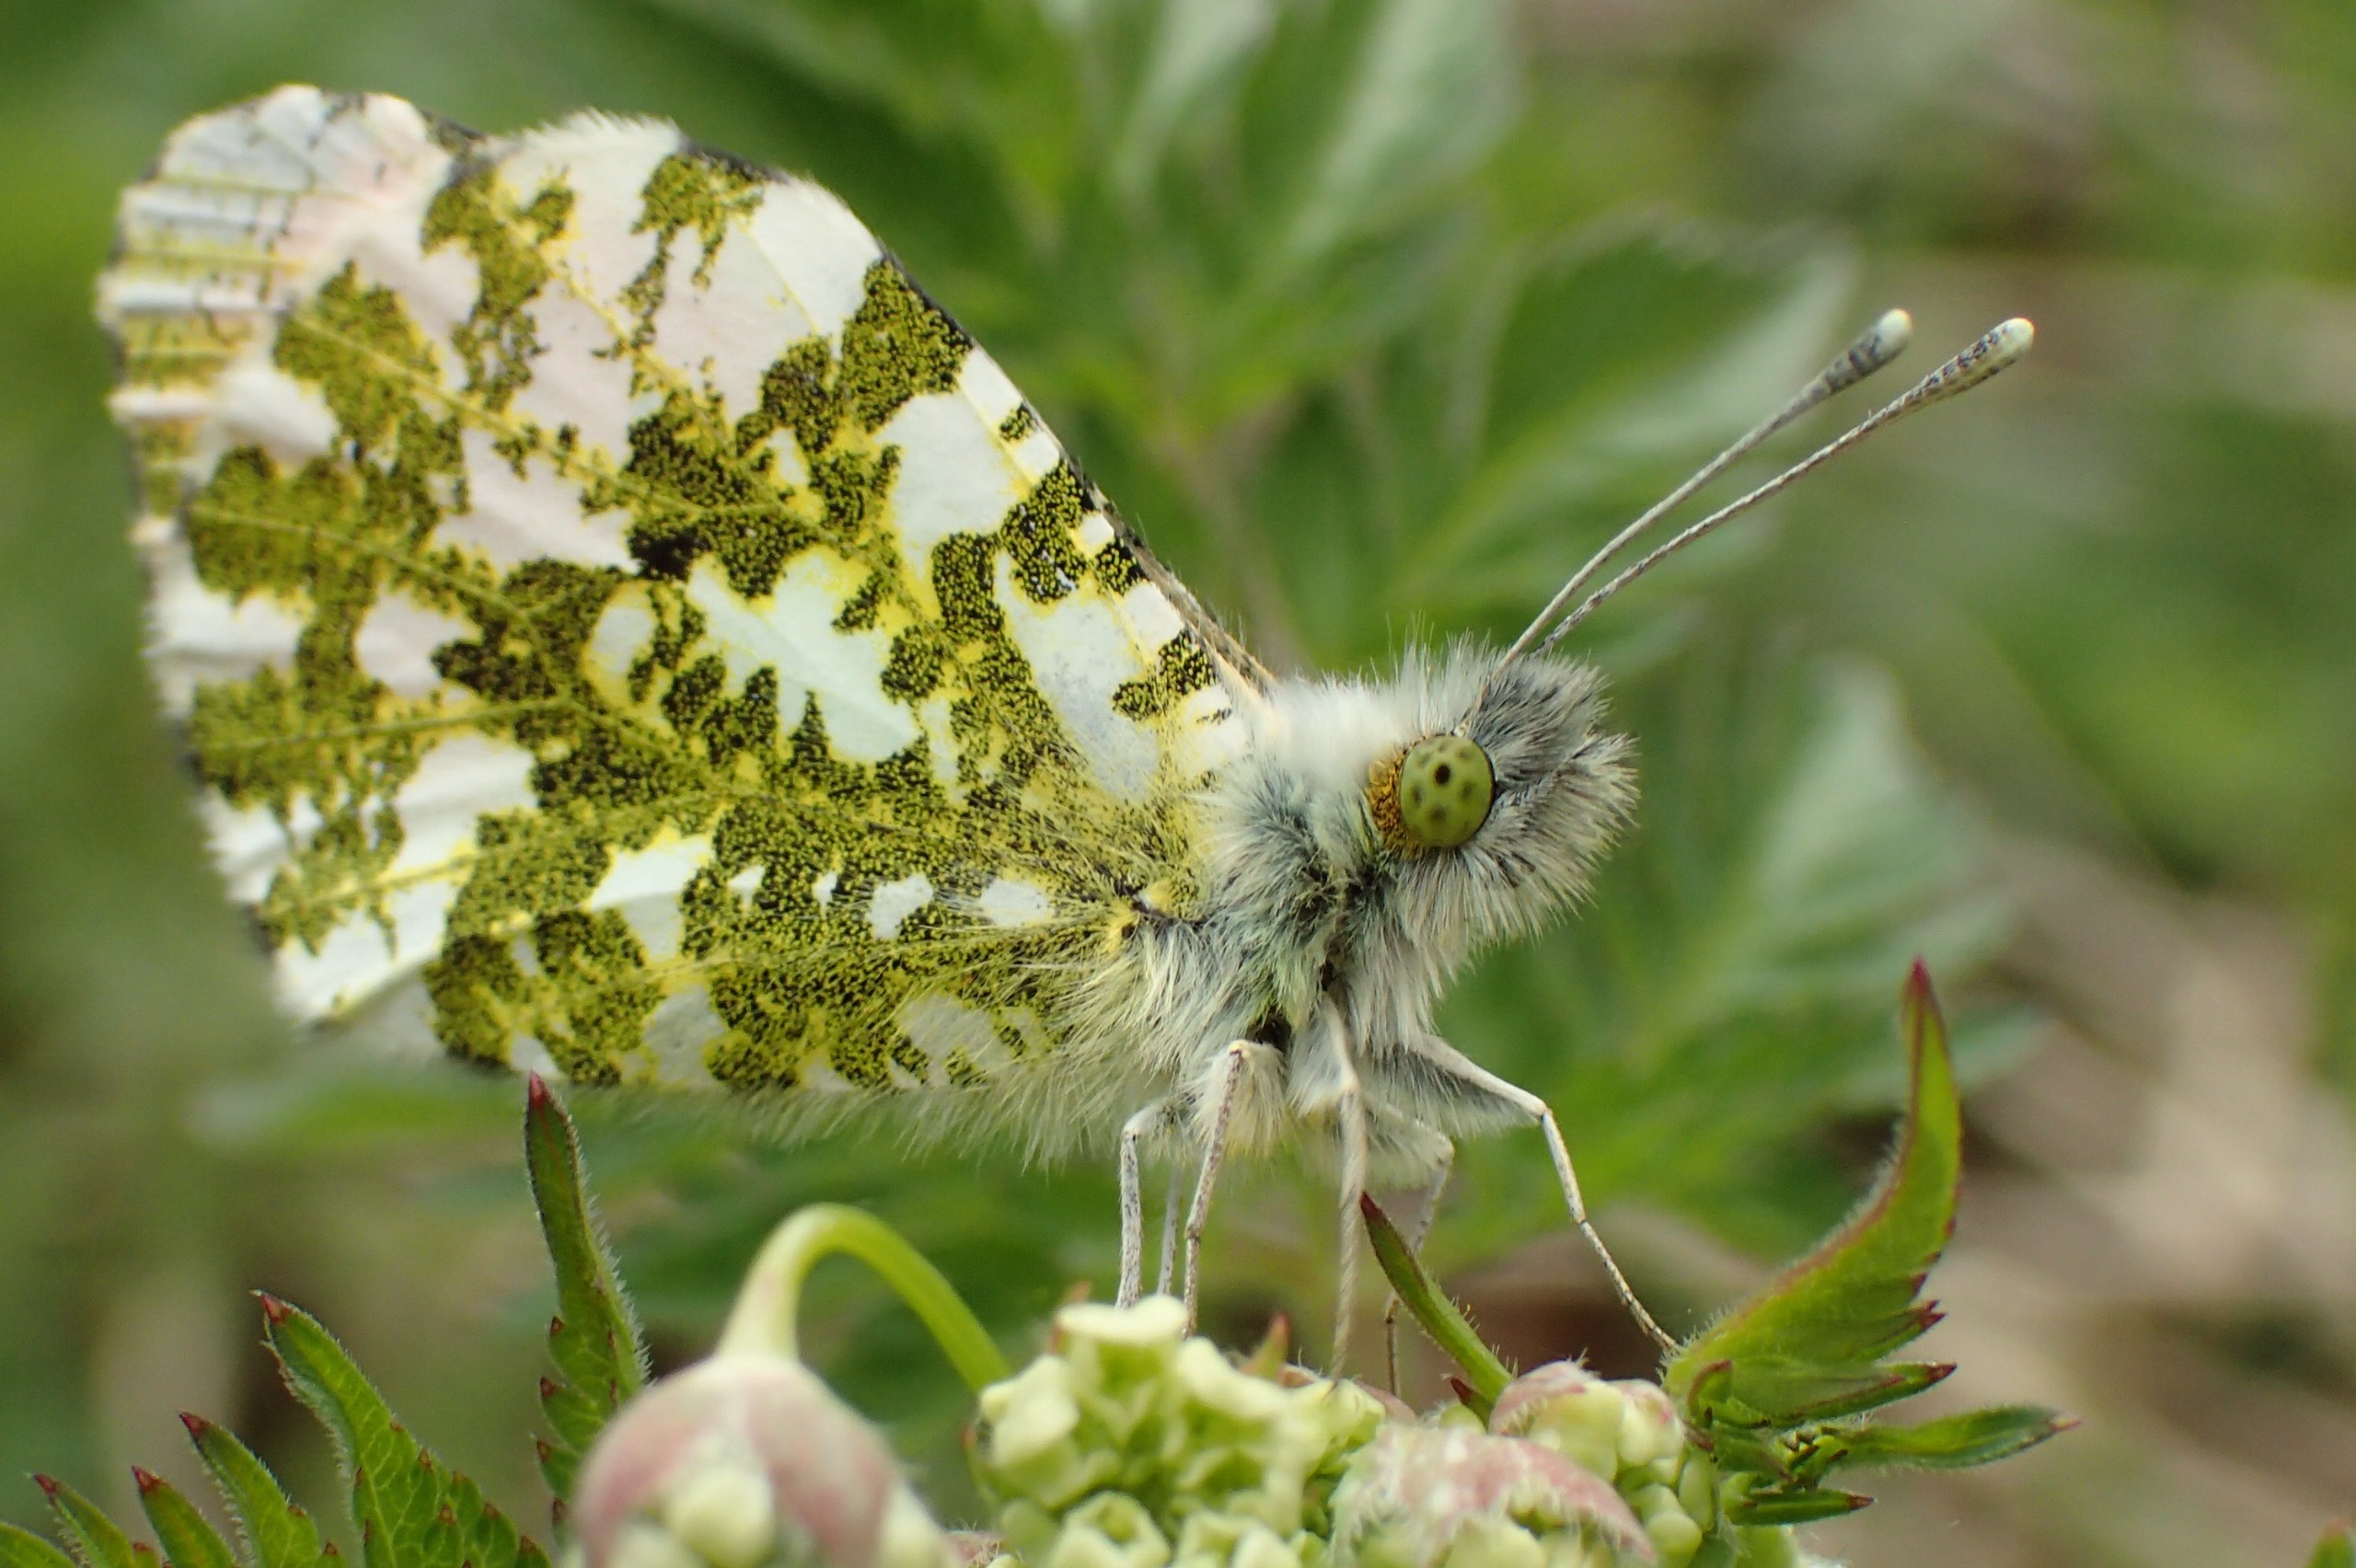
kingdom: Animalia
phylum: Arthropoda
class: Insecta
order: Lepidoptera
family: Pieridae
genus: Anthocharis
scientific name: Anthocharis cardamines
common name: Aurora
